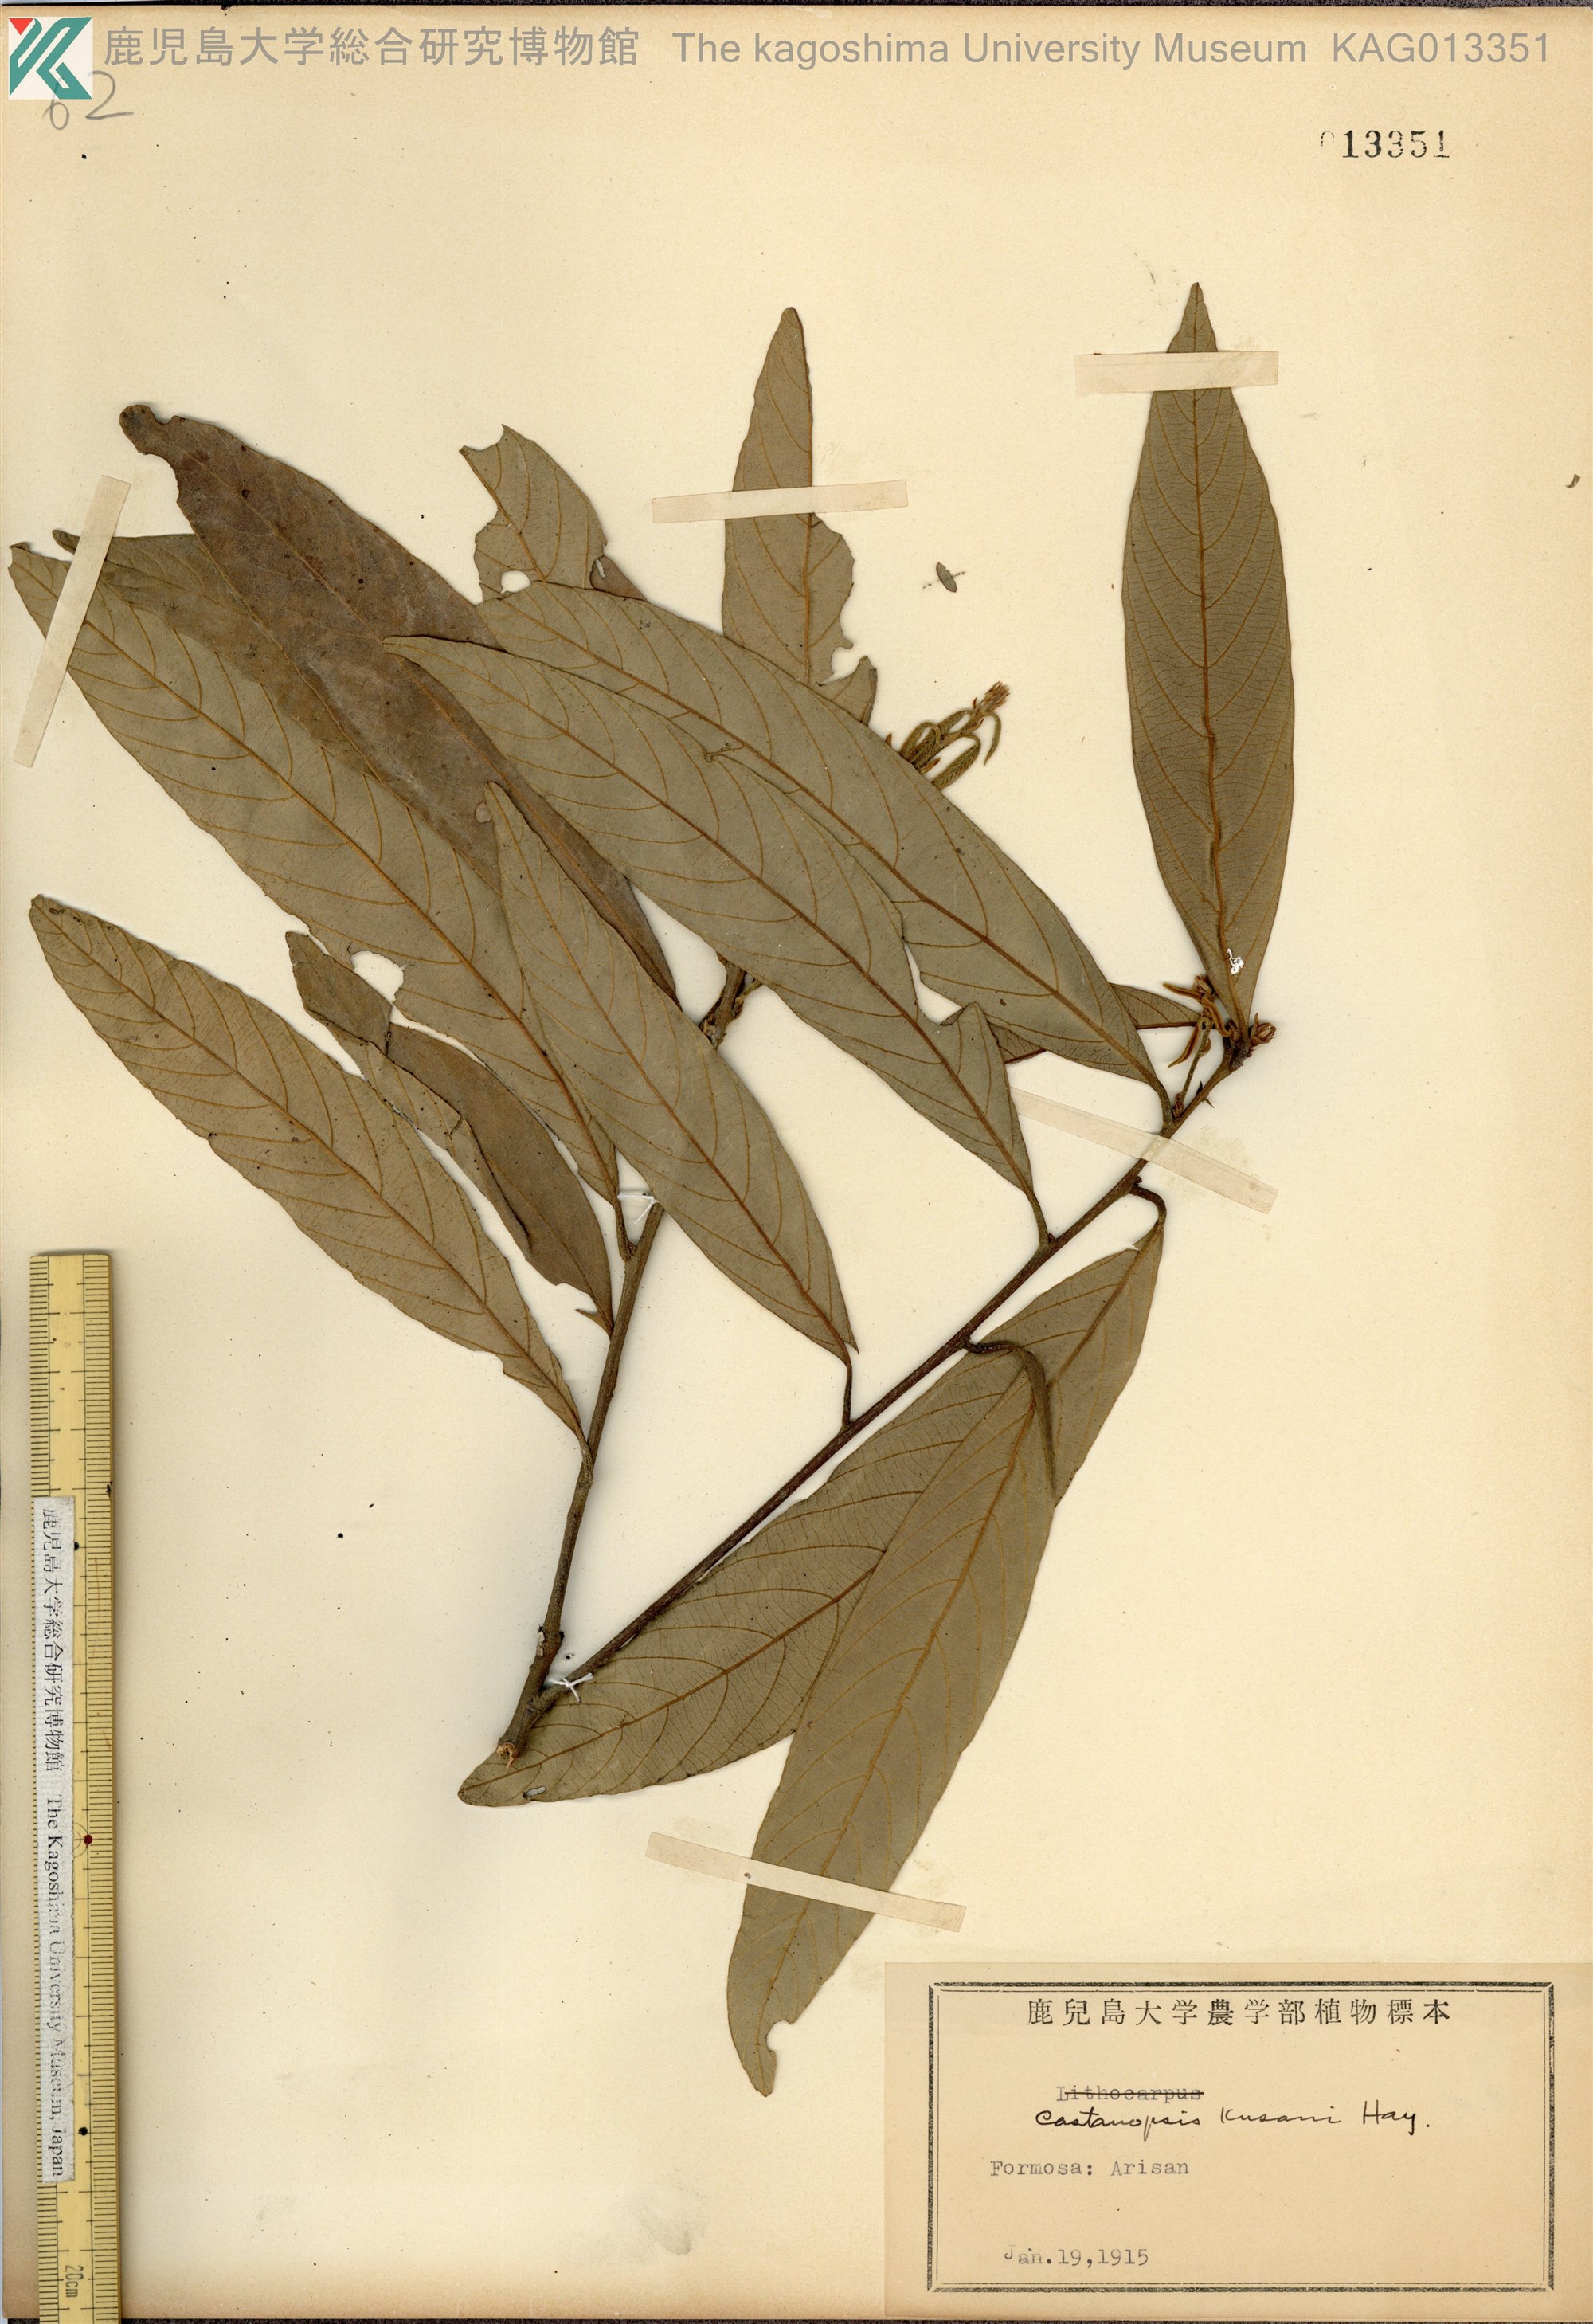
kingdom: Plantae
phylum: Tracheophyta
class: Magnoliopsida
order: Fagales
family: Fagaceae
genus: Castanopsis
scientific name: Castanopsis faberi
